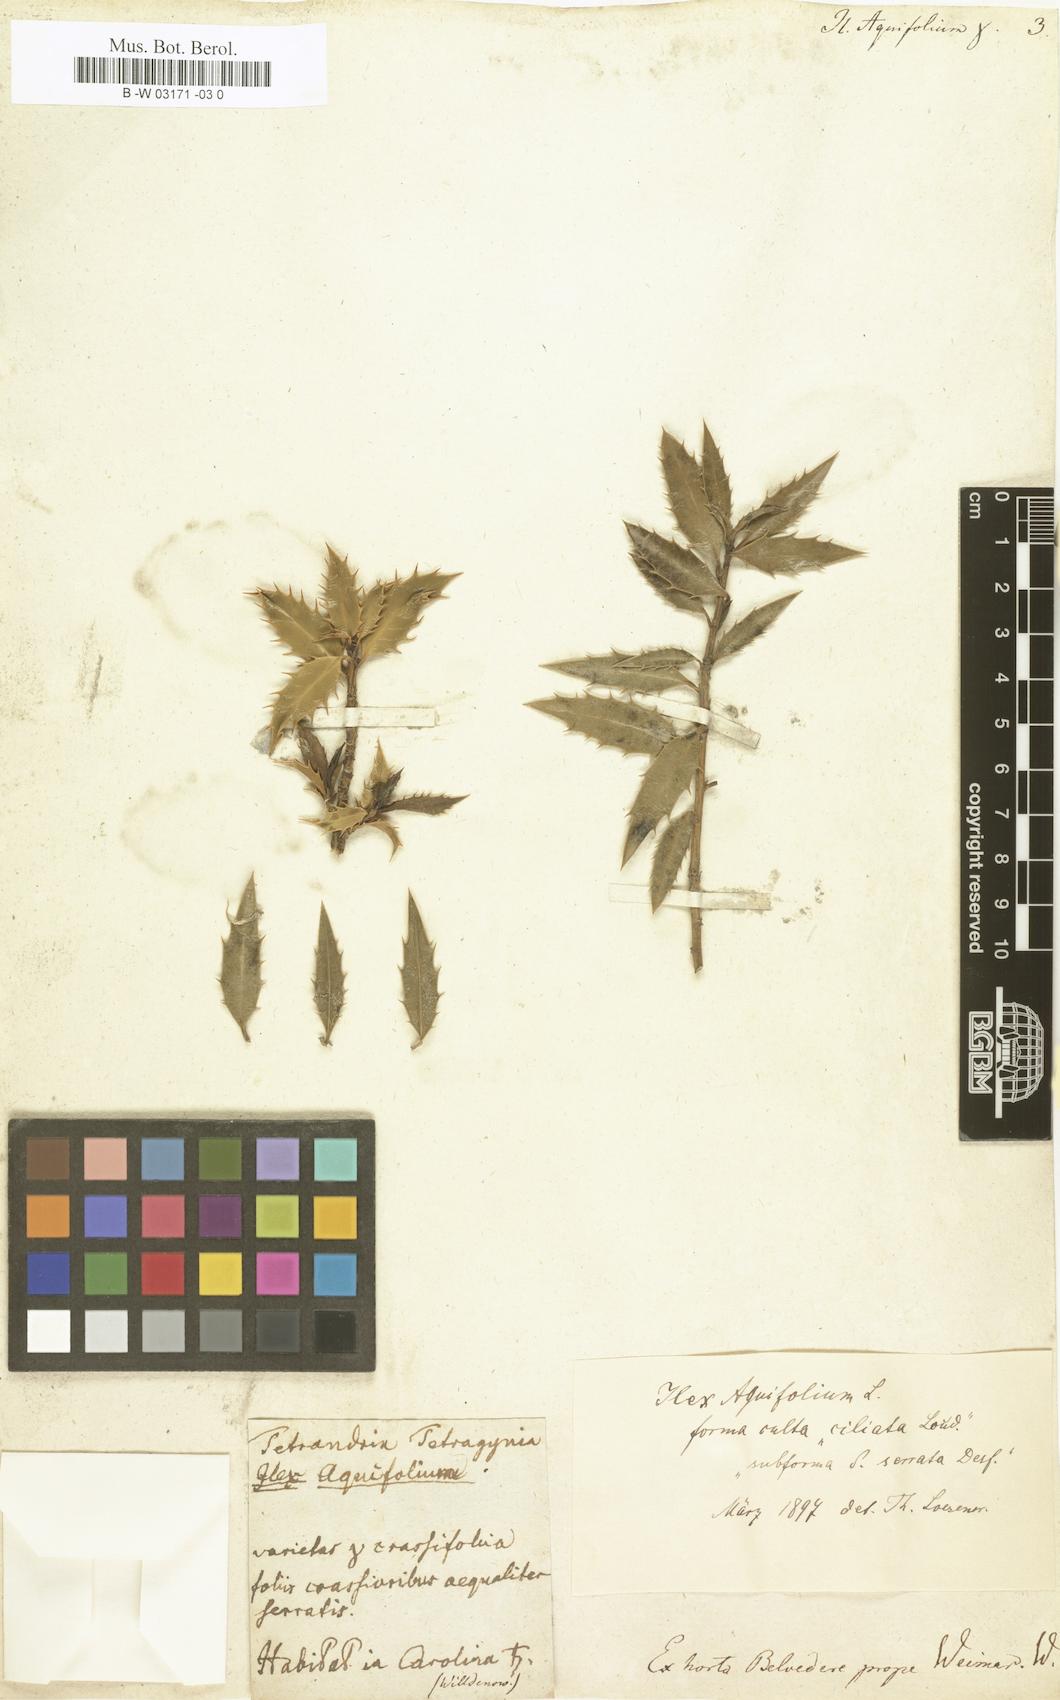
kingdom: Plantae
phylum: Tracheophyta
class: Magnoliopsida
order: Aquifoliales
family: Aquifoliaceae
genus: Ilex
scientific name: Ilex aquifolium
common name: English holly
